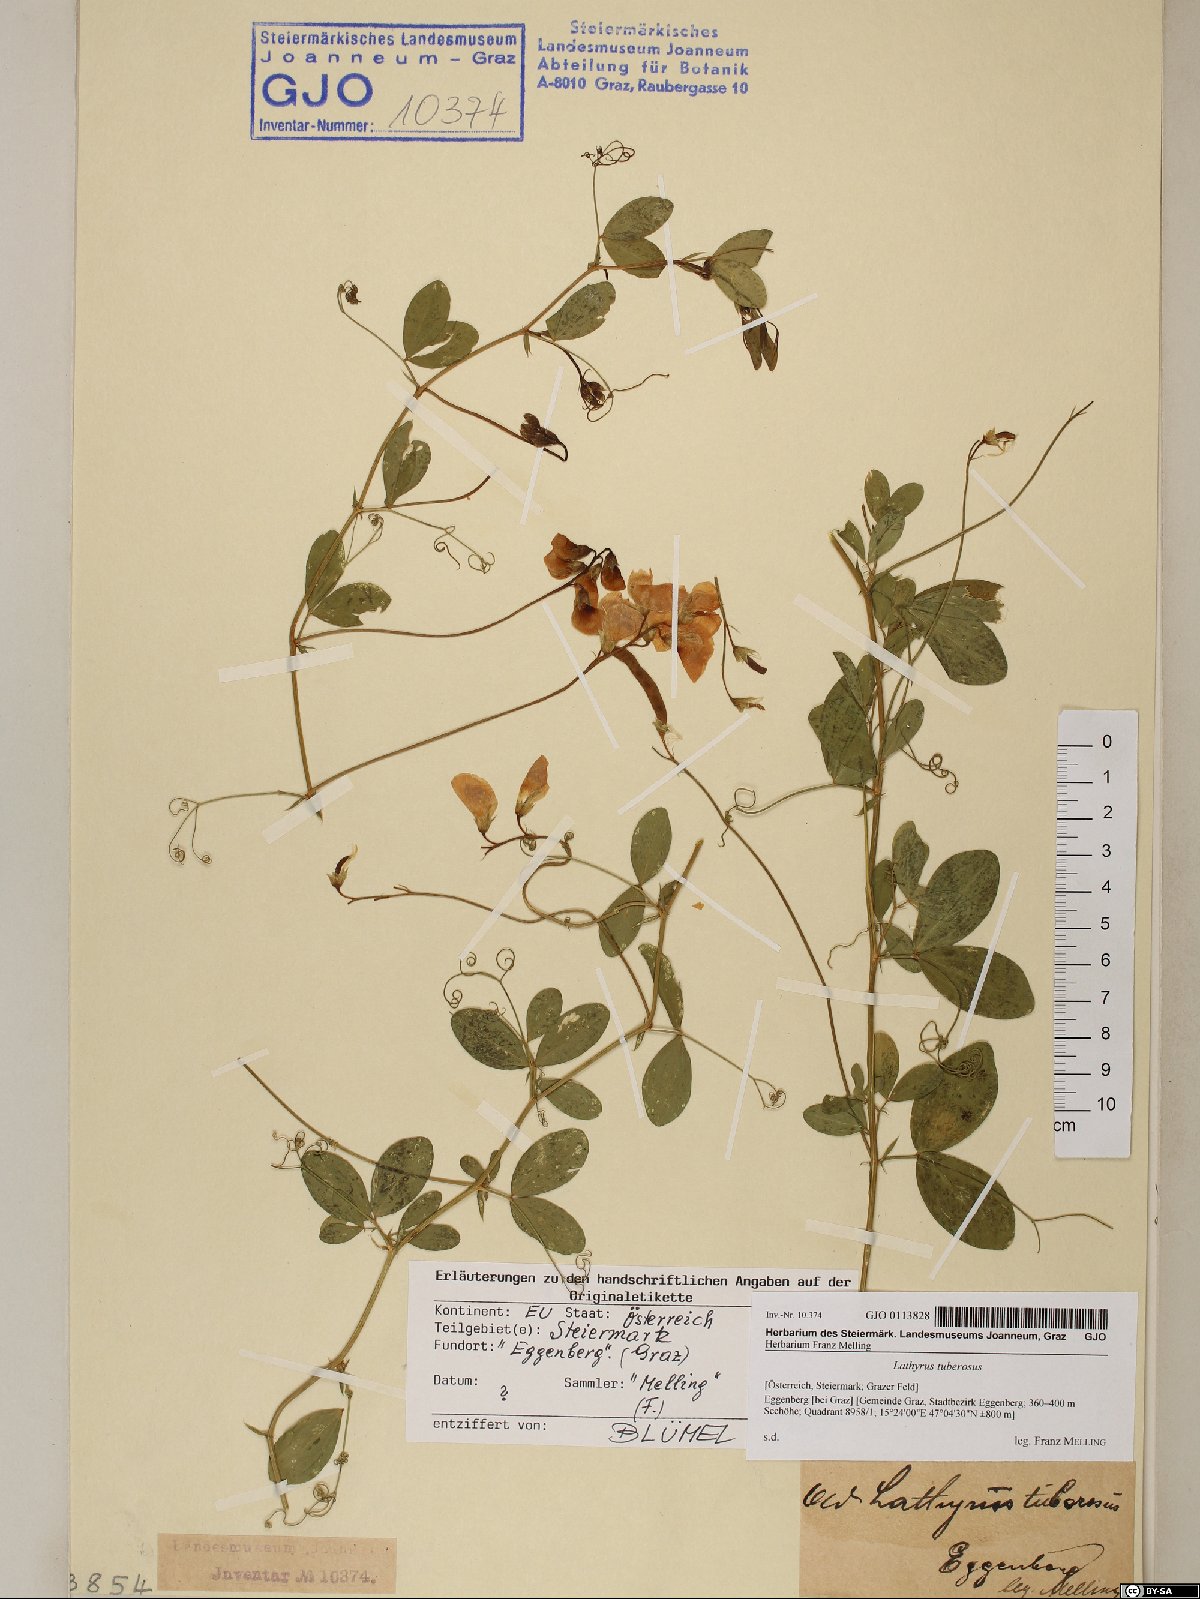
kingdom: Plantae
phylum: Tracheophyta
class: Magnoliopsida
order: Fabales
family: Fabaceae
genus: Lathyrus
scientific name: Lathyrus tuberosus
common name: Tuberous pea
